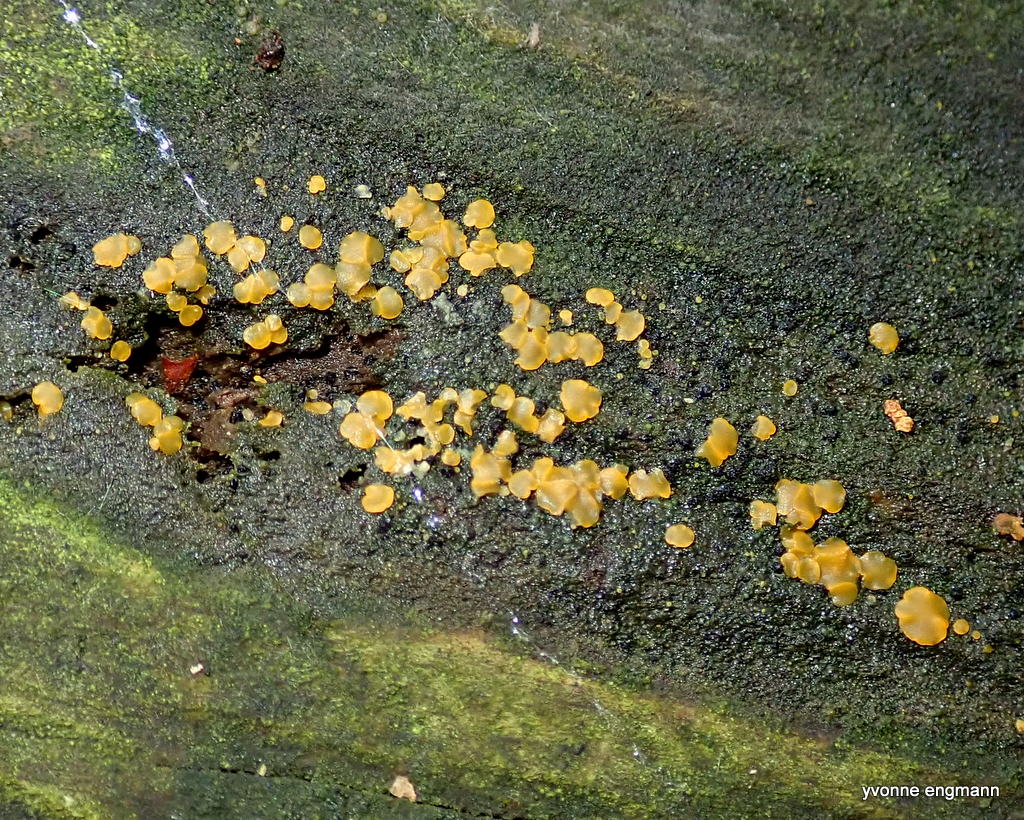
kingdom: Fungi
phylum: Ascomycota
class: Orbiliomycetes
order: Orbiliales
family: Orbiliaceae
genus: Orbilia
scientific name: Orbilia xanthostigma
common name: krumsporet voksskive
